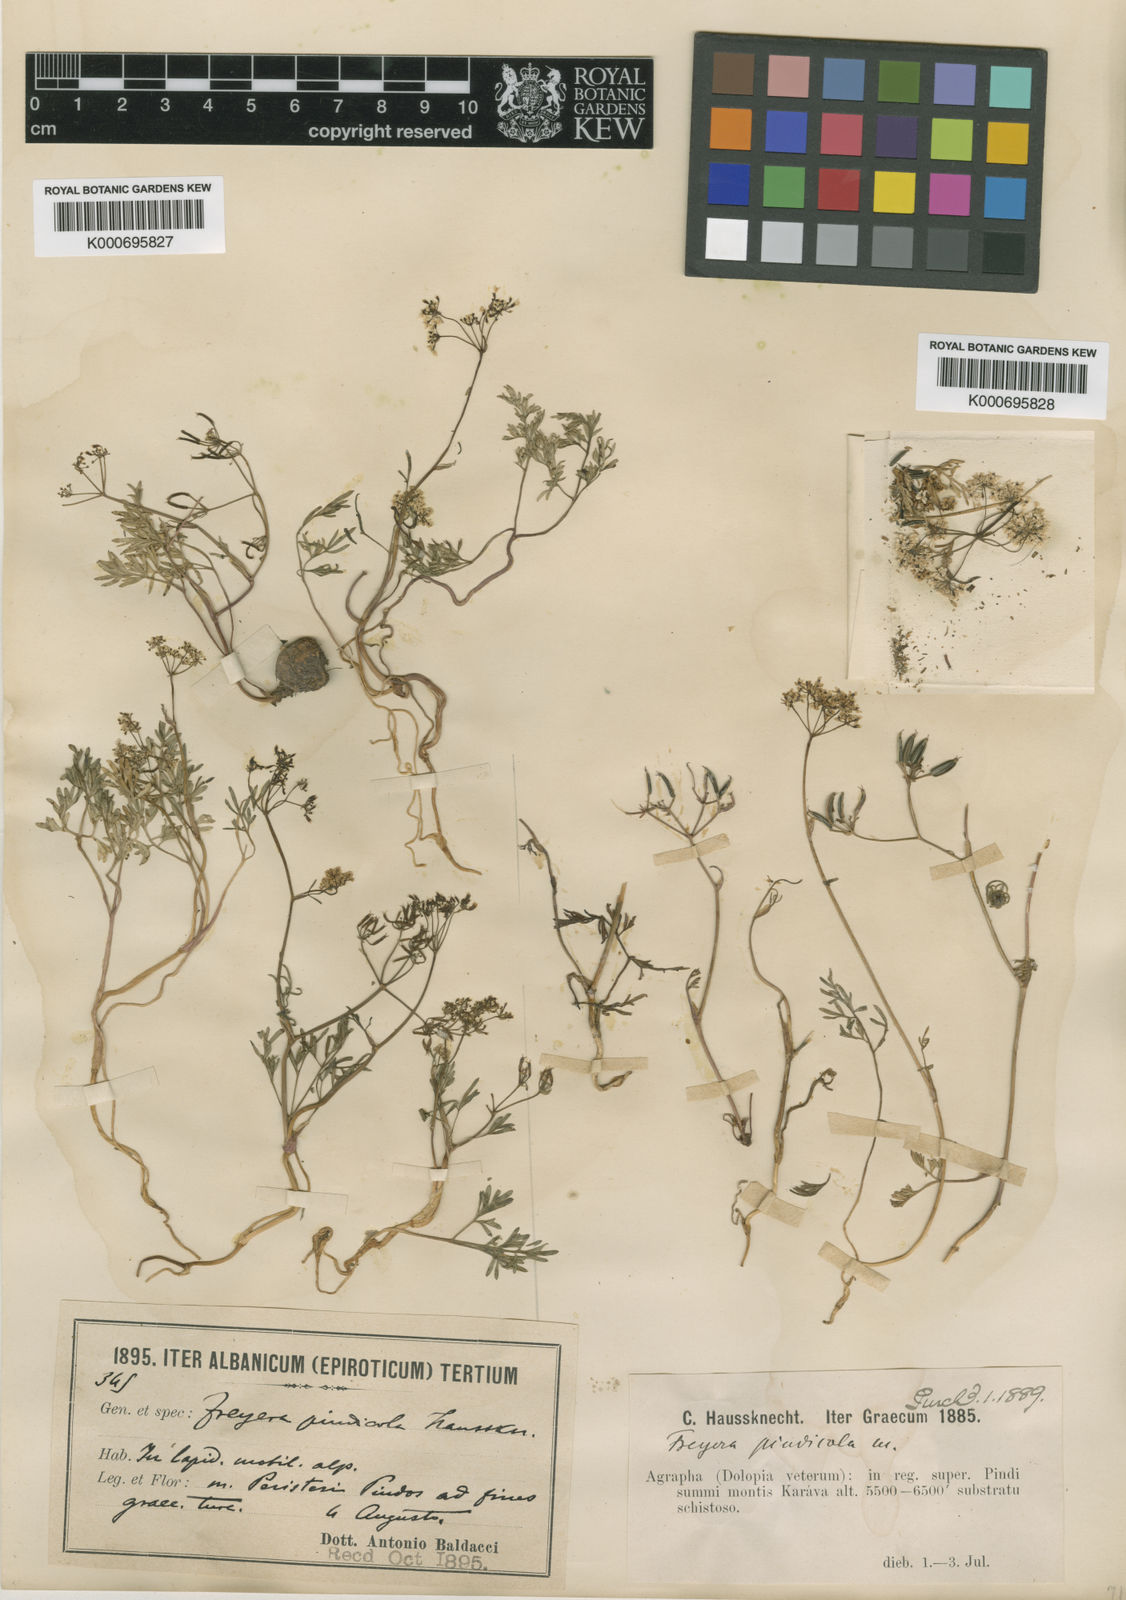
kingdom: Plantae
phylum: Tracheophyta
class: Magnoliopsida
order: Apiales
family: Apiaceae
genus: Geocaryum
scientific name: Geocaryum pindicola
